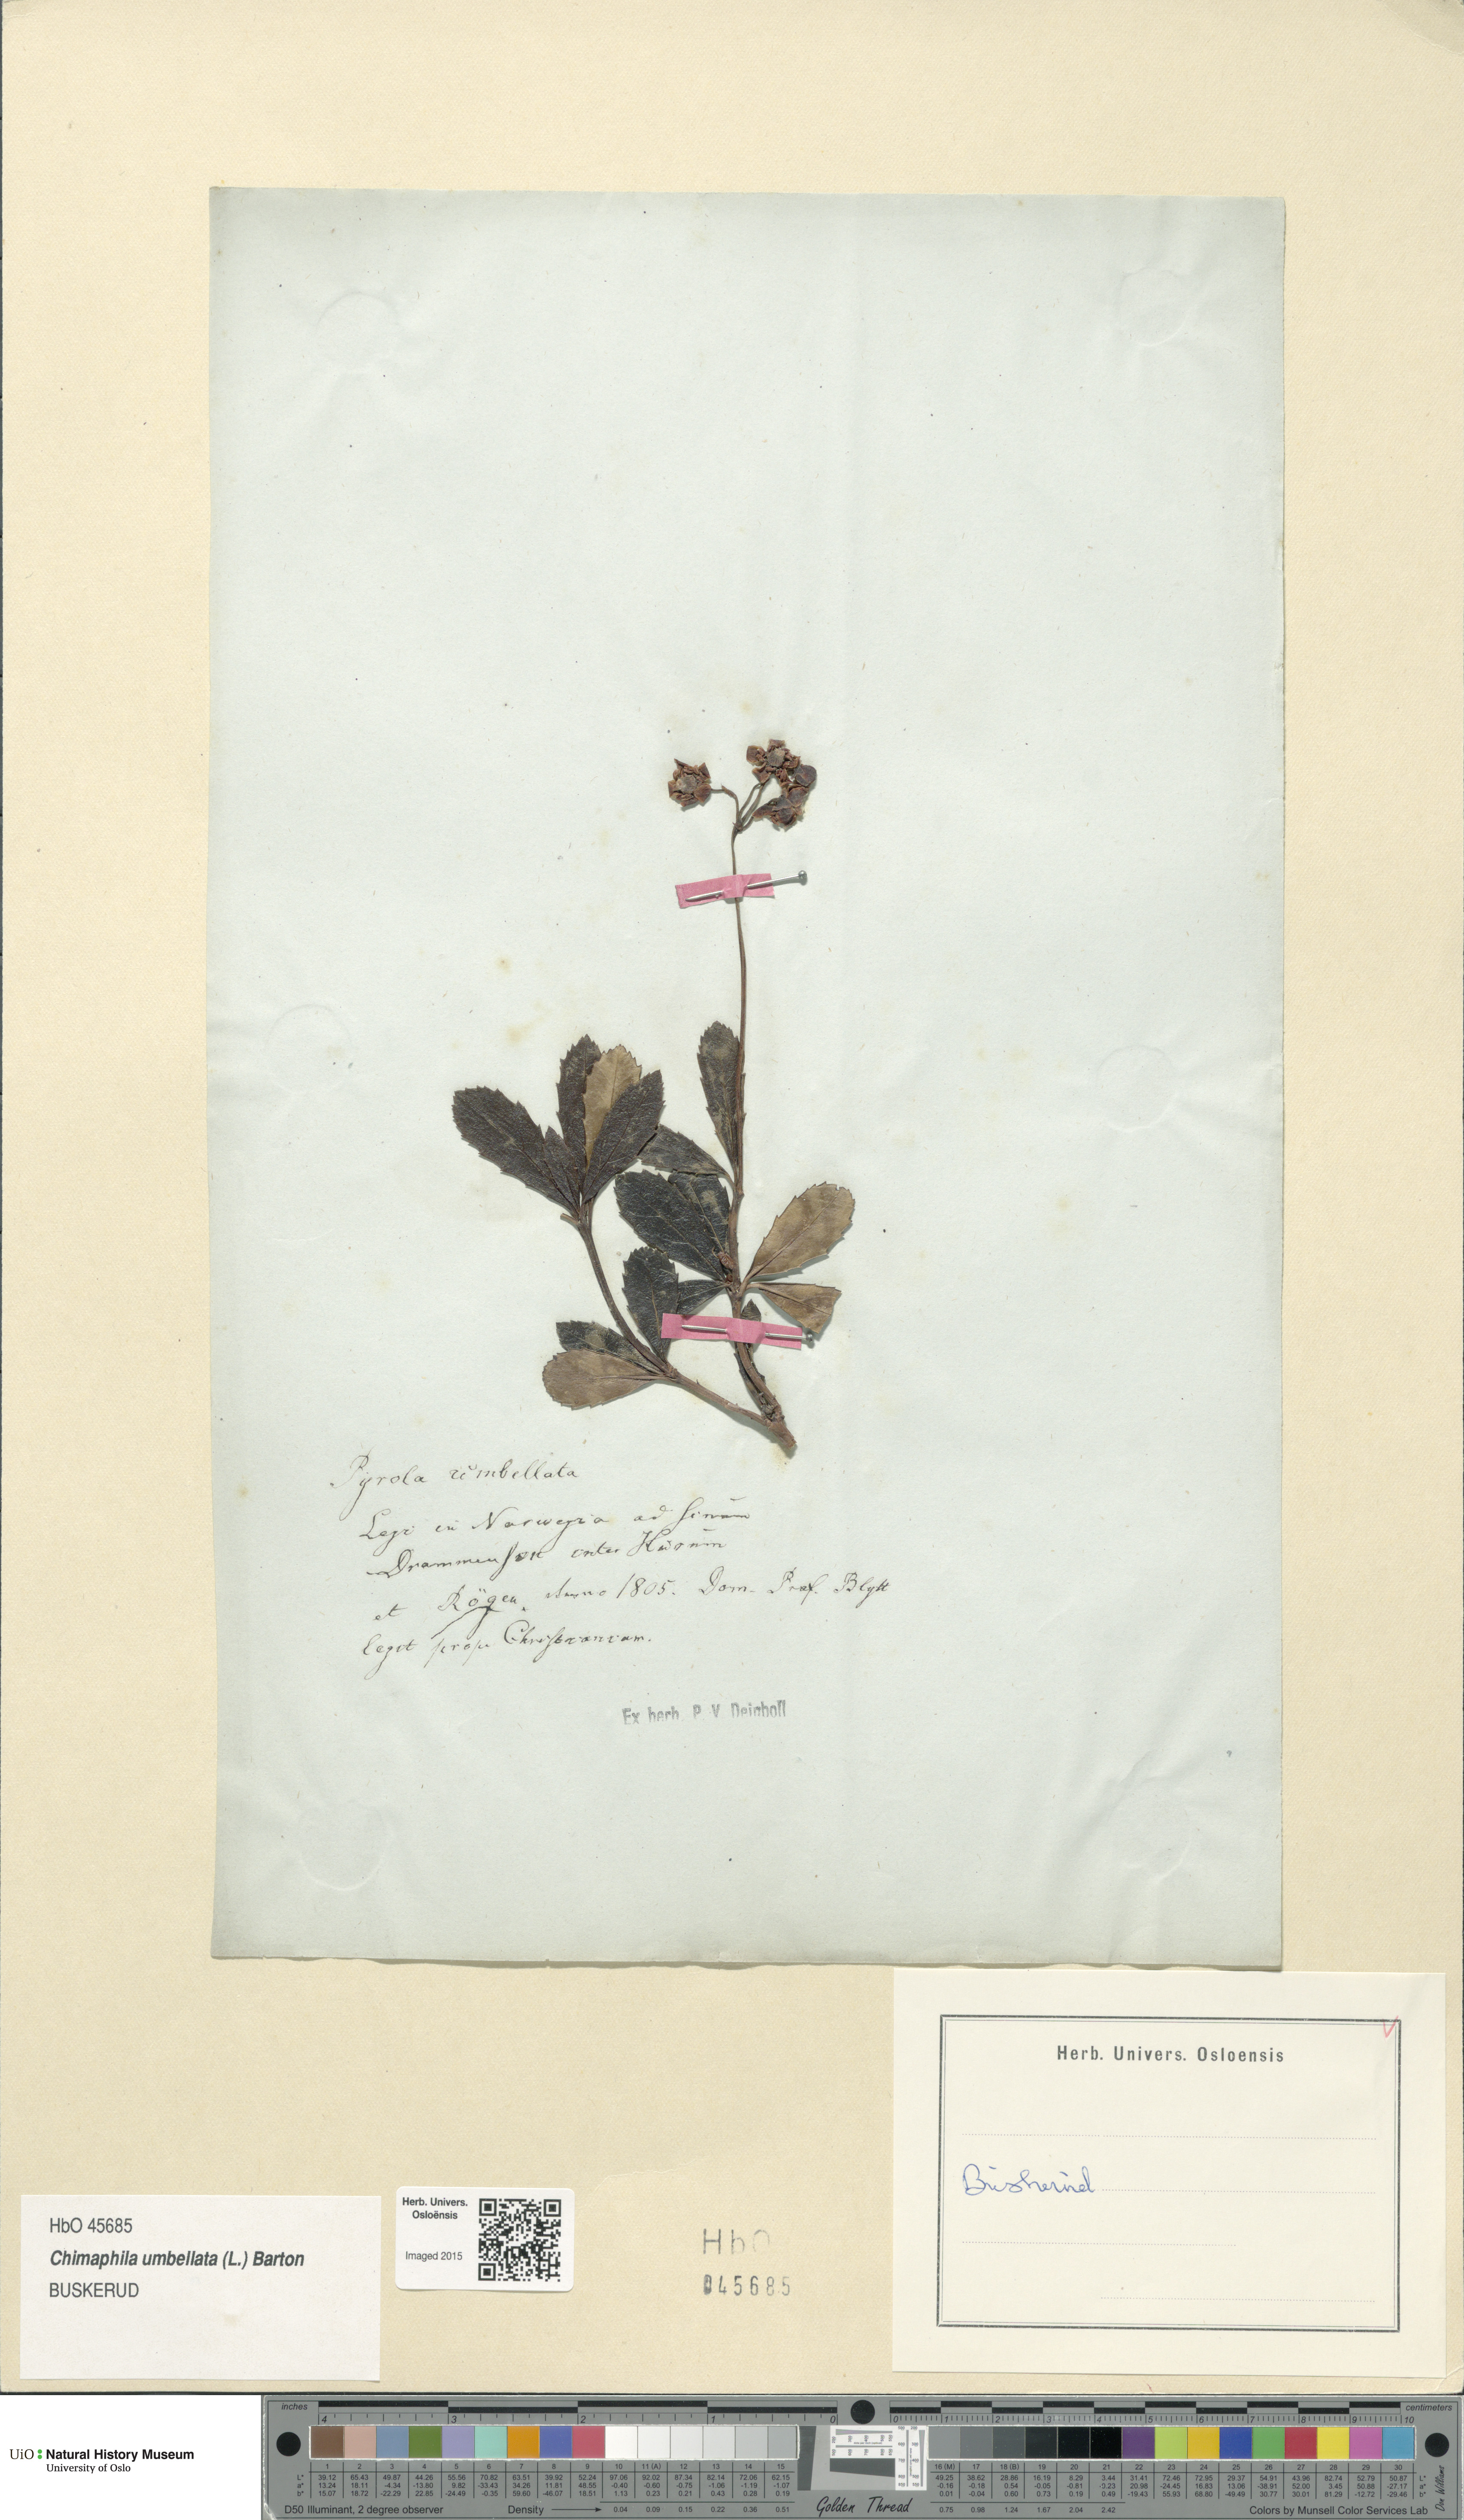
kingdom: Plantae
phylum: Tracheophyta
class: Magnoliopsida
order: Ericales
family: Ericaceae
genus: Chimaphila
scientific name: Chimaphila umbellata
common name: Pipsissewa
